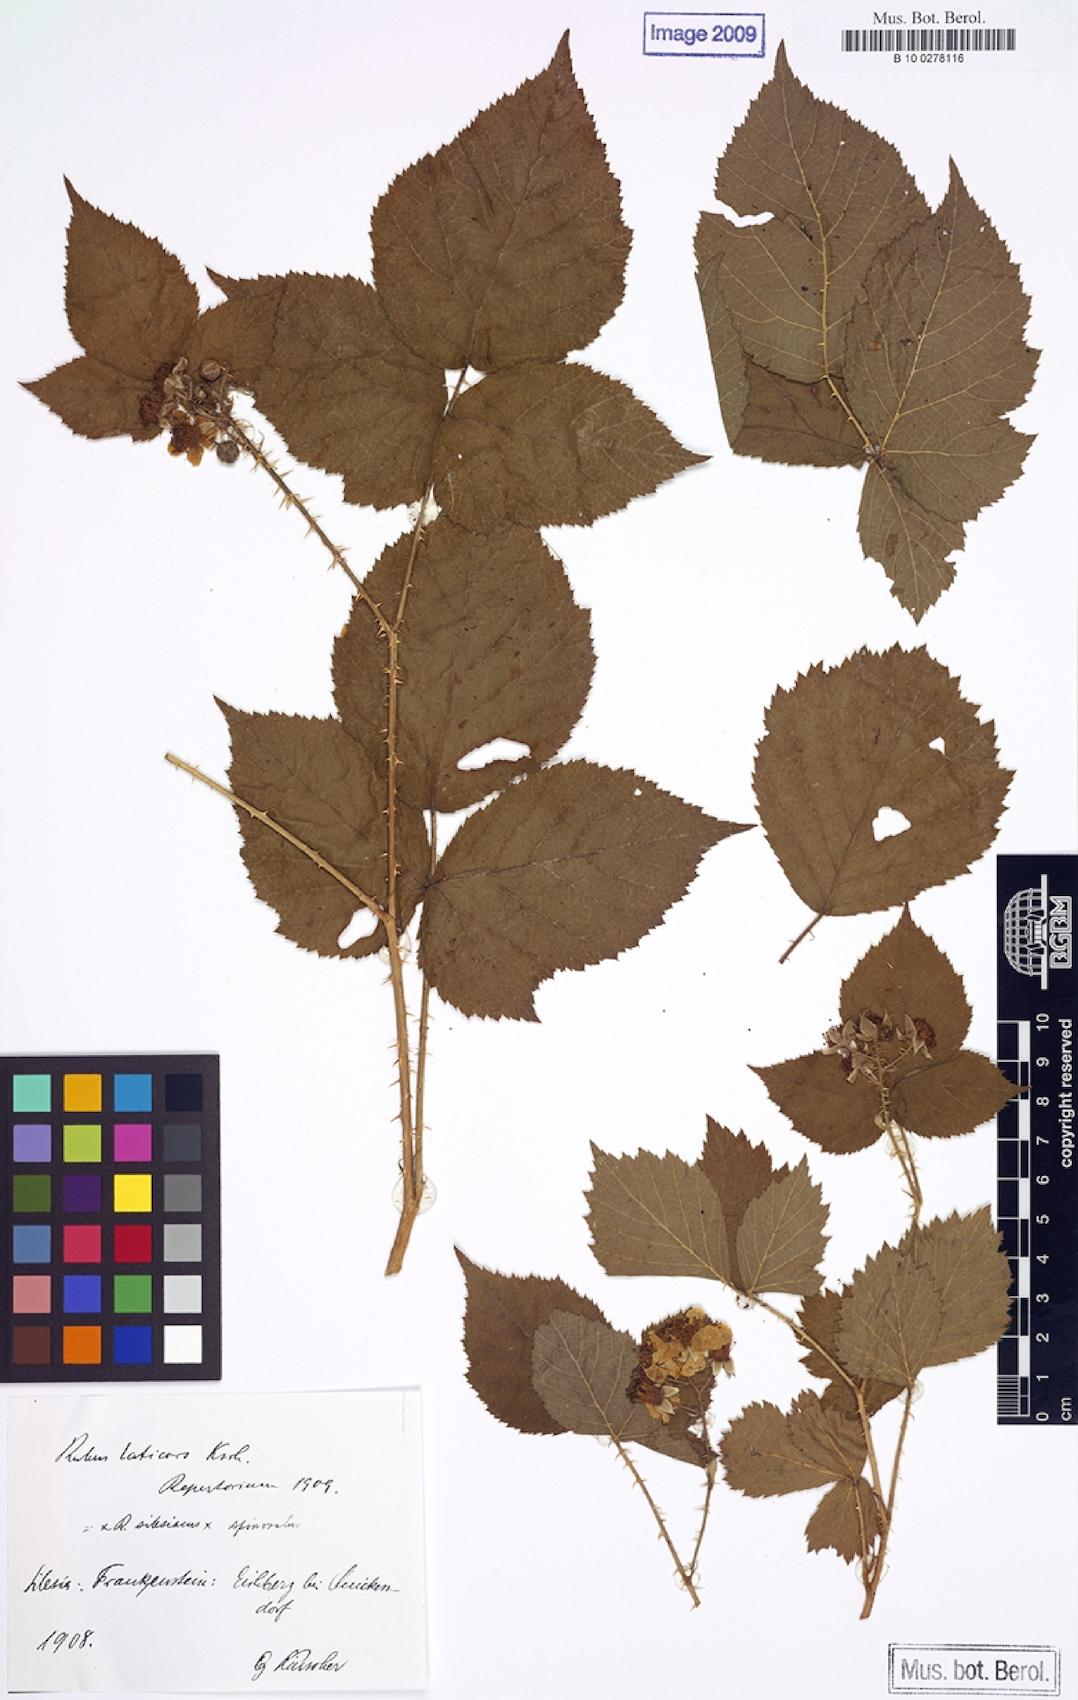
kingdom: Plantae
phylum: Tracheophyta
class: Magnoliopsida
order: Rosales
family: Rosaceae
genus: Rubus
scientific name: Rubus laticors
